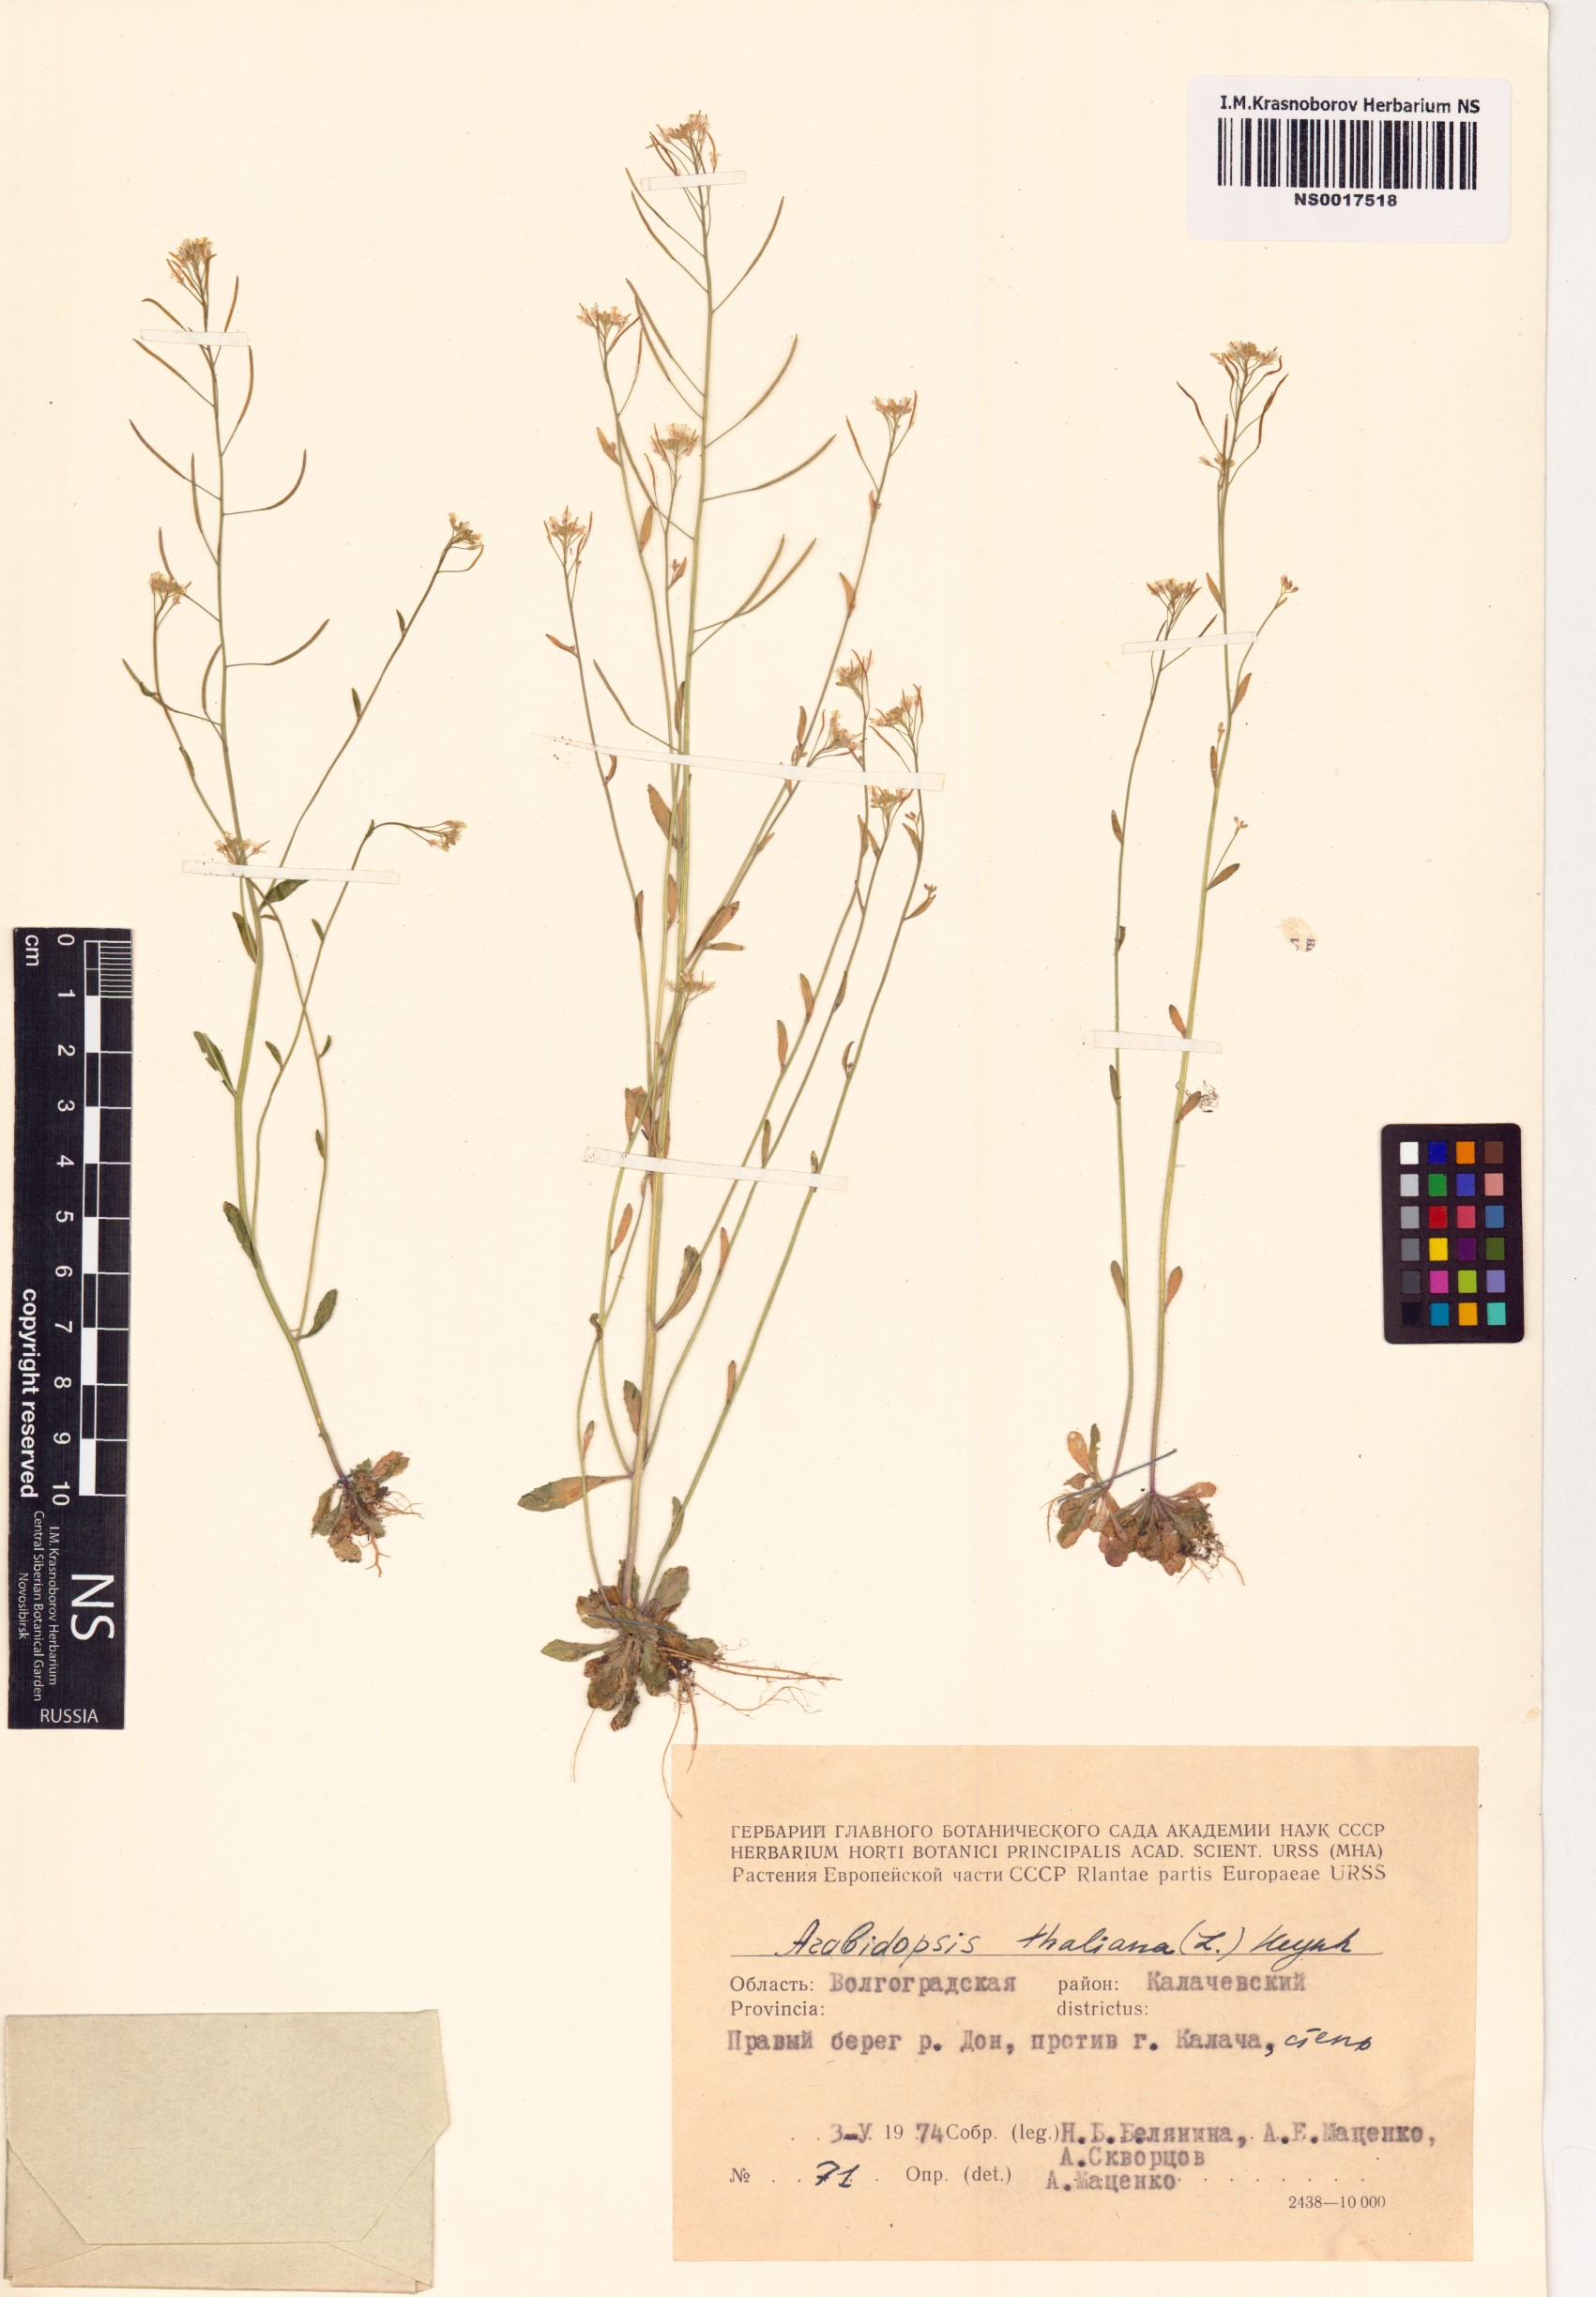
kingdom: Plantae
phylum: Tracheophyta
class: Magnoliopsida
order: Brassicales
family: Brassicaceae
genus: Arabidopsis
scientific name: Arabidopsis thaliana
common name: Thale cress
